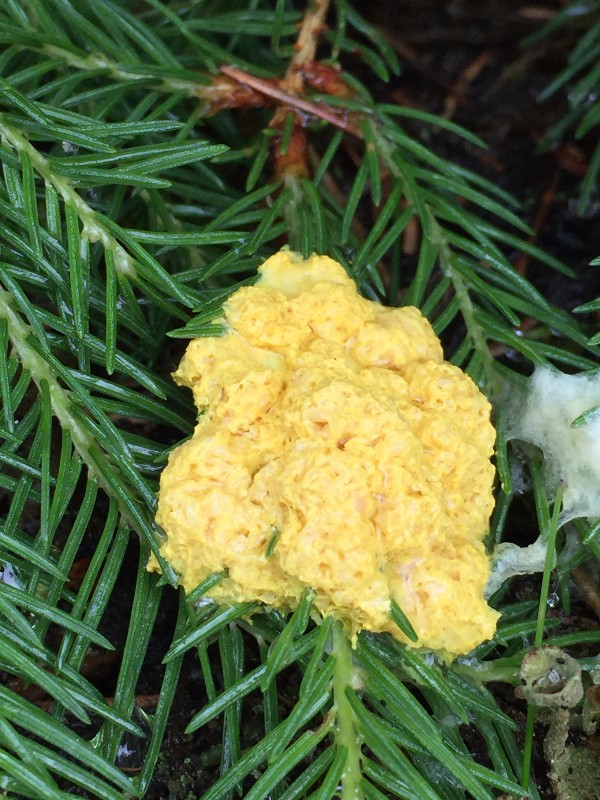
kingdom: Protozoa
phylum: Mycetozoa
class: Myxomycetes
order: Physarales
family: Physaraceae
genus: Fuligo
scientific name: Fuligo septica
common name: gul troldsmør
